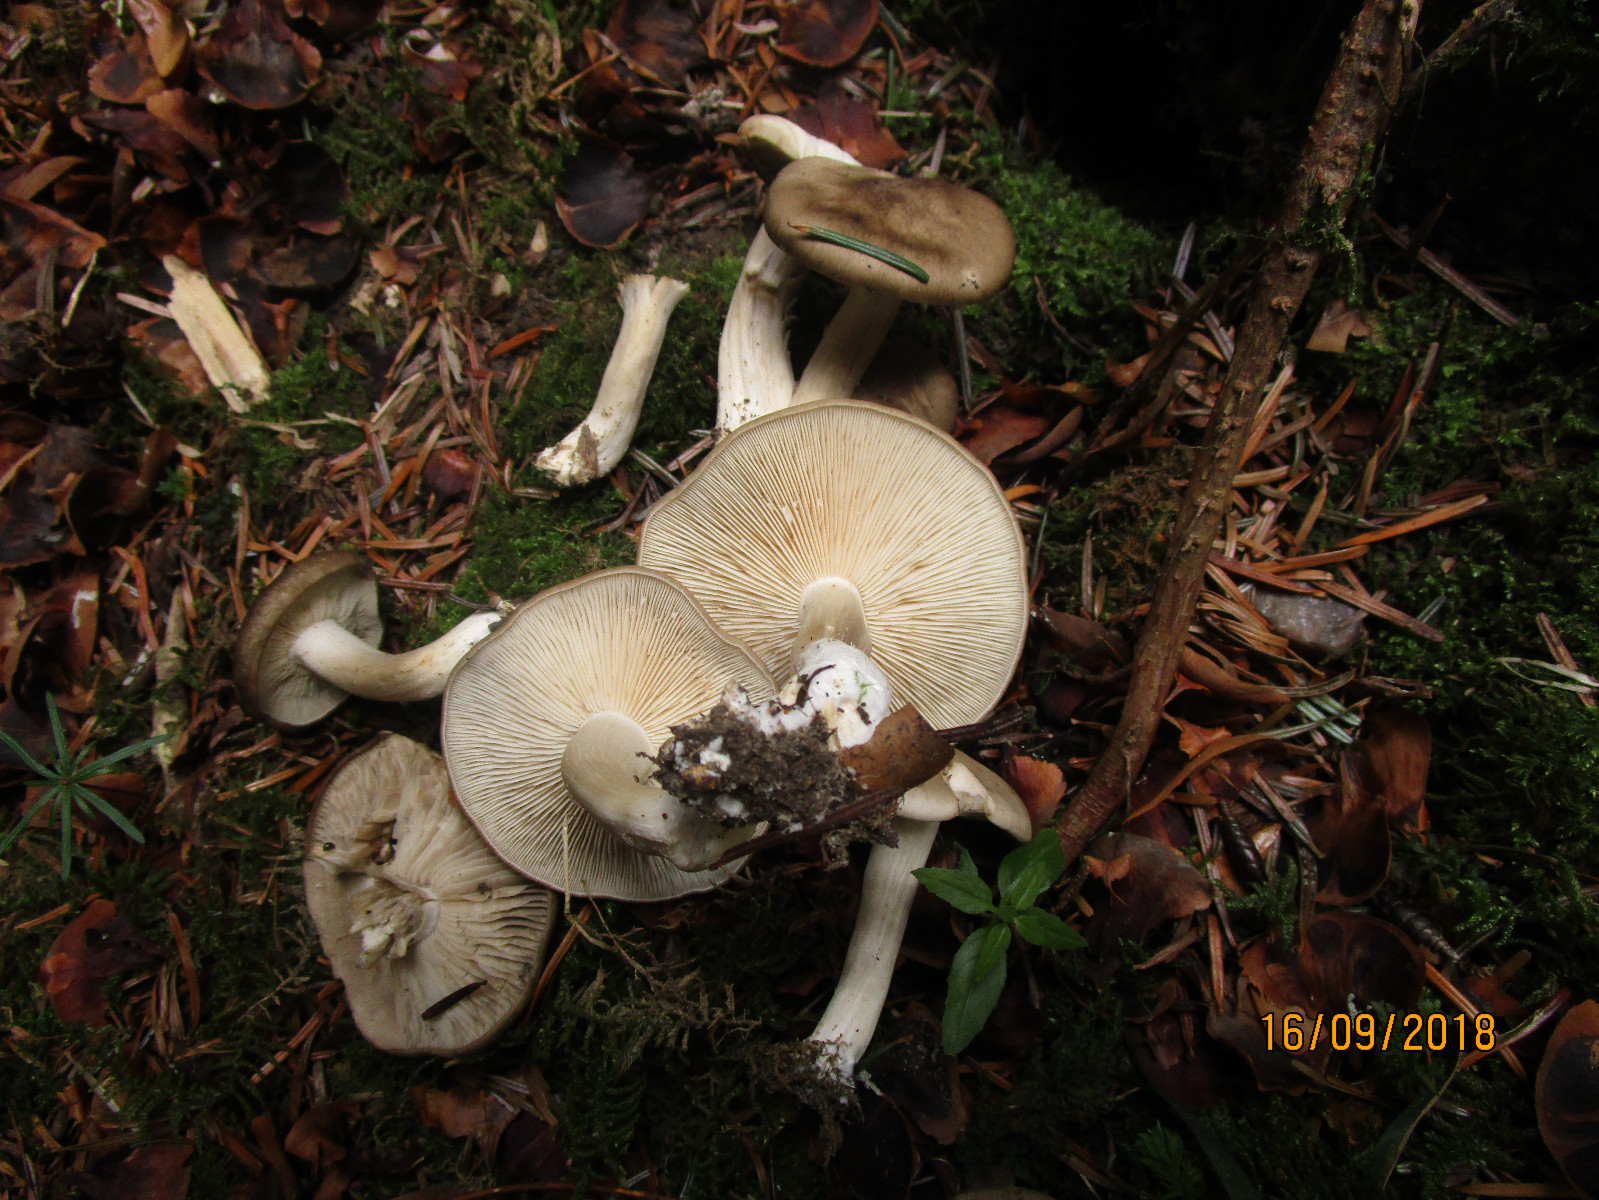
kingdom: Fungi
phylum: Basidiomycota
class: Agaricomycetes
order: Agaricales
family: Lyophyllaceae
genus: Lyophyllum
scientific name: Lyophyllum decastes
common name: røggrå gråblad
